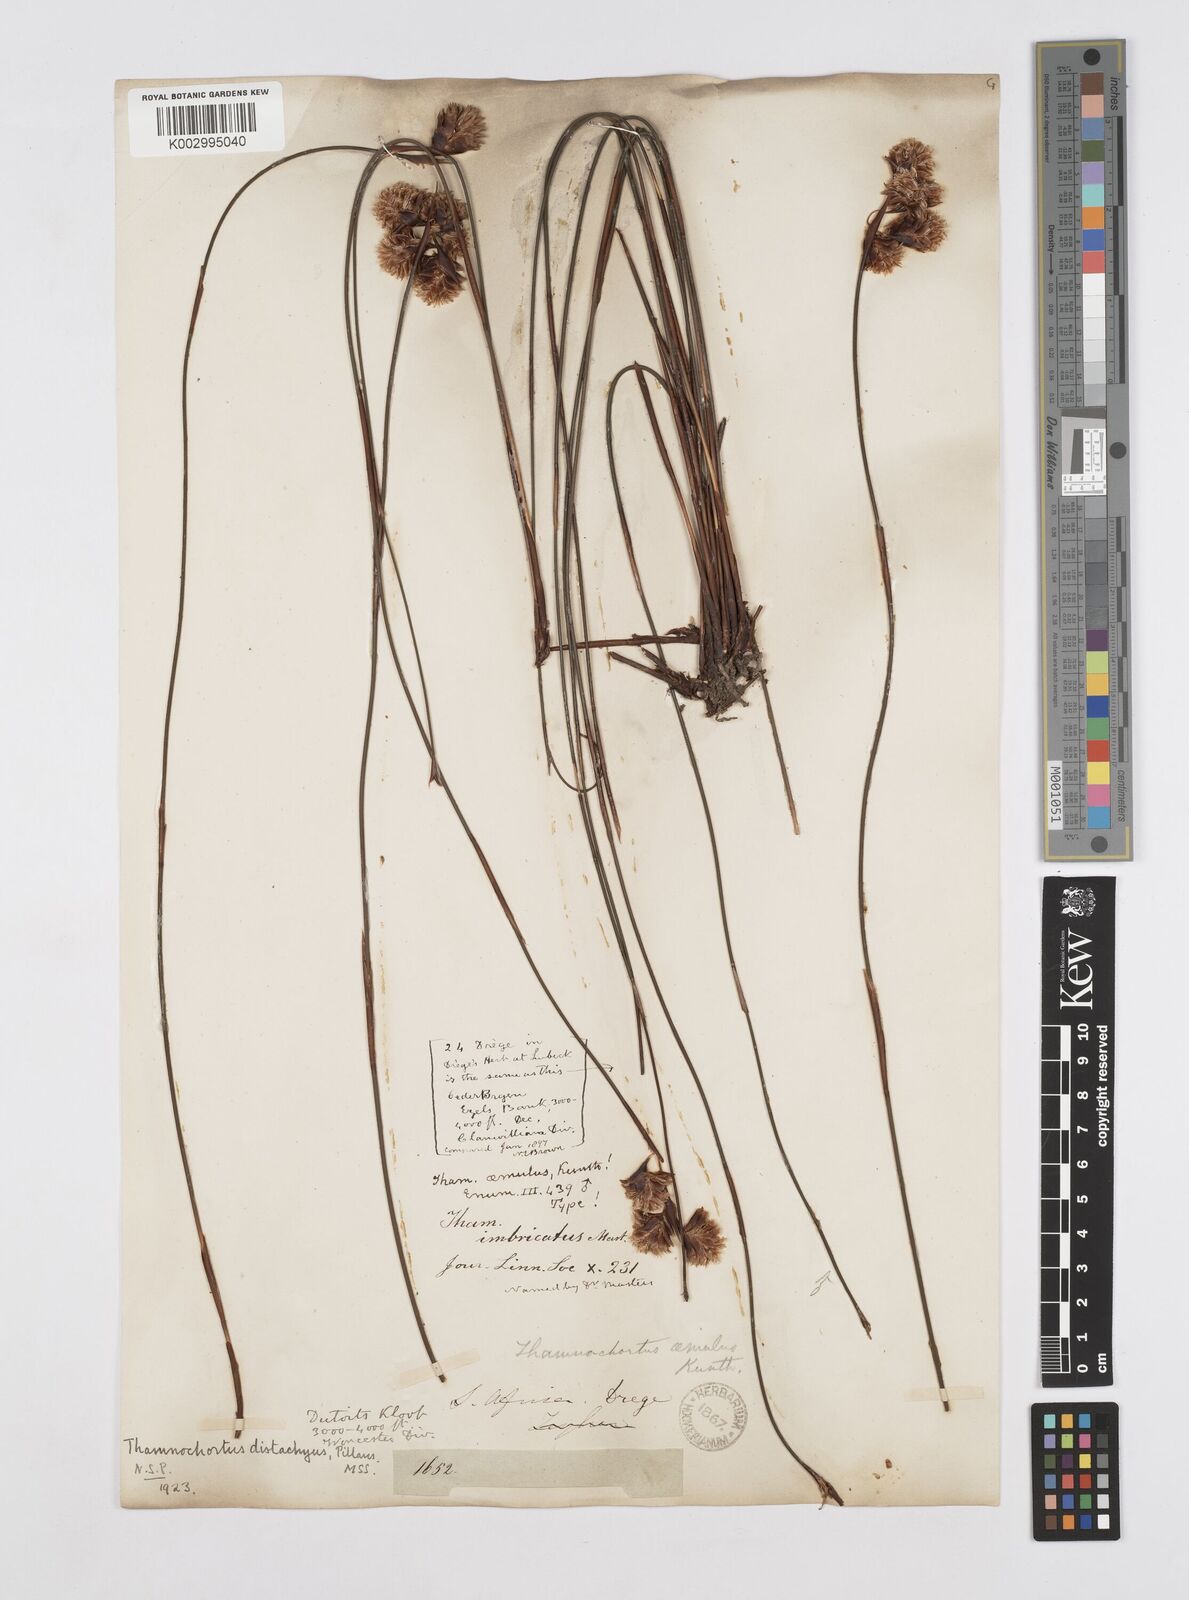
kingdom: Plantae
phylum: Tracheophyta
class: Liliopsida
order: Poales
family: Restionaceae
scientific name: Restionaceae
